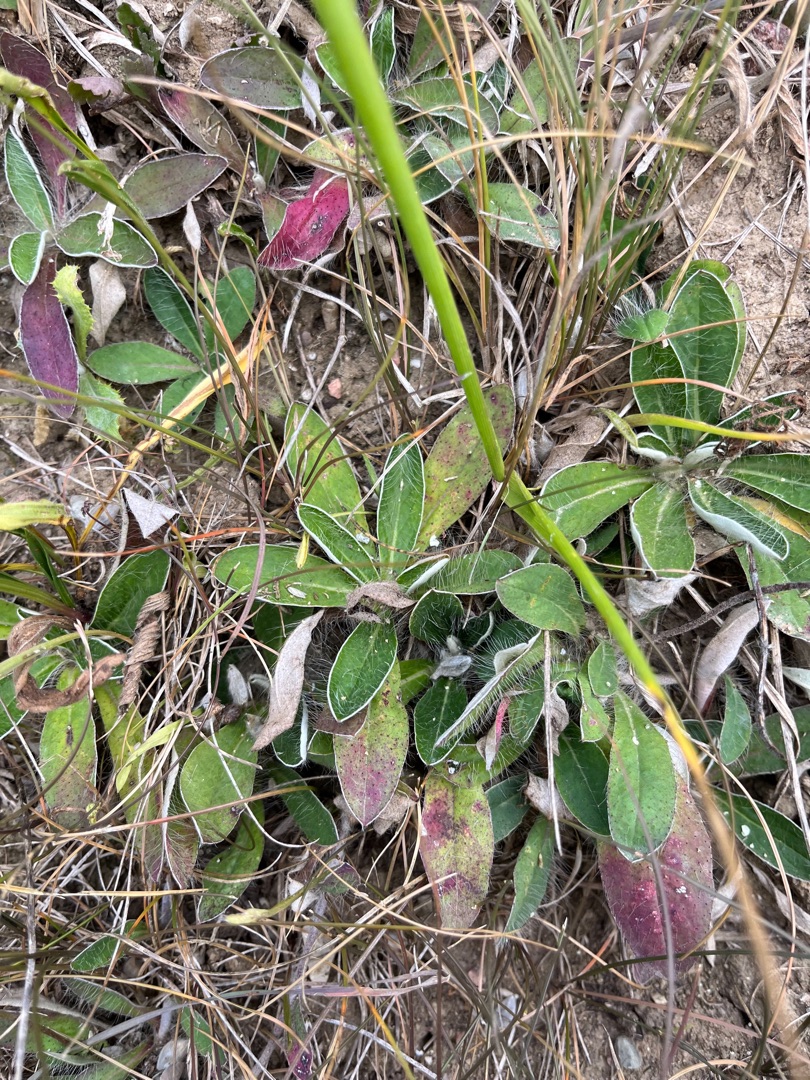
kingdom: Plantae
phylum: Tracheophyta
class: Magnoliopsida
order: Asterales
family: Asteraceae
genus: Pilosella
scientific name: Pilosella officinarum
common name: Håret høgeurt
